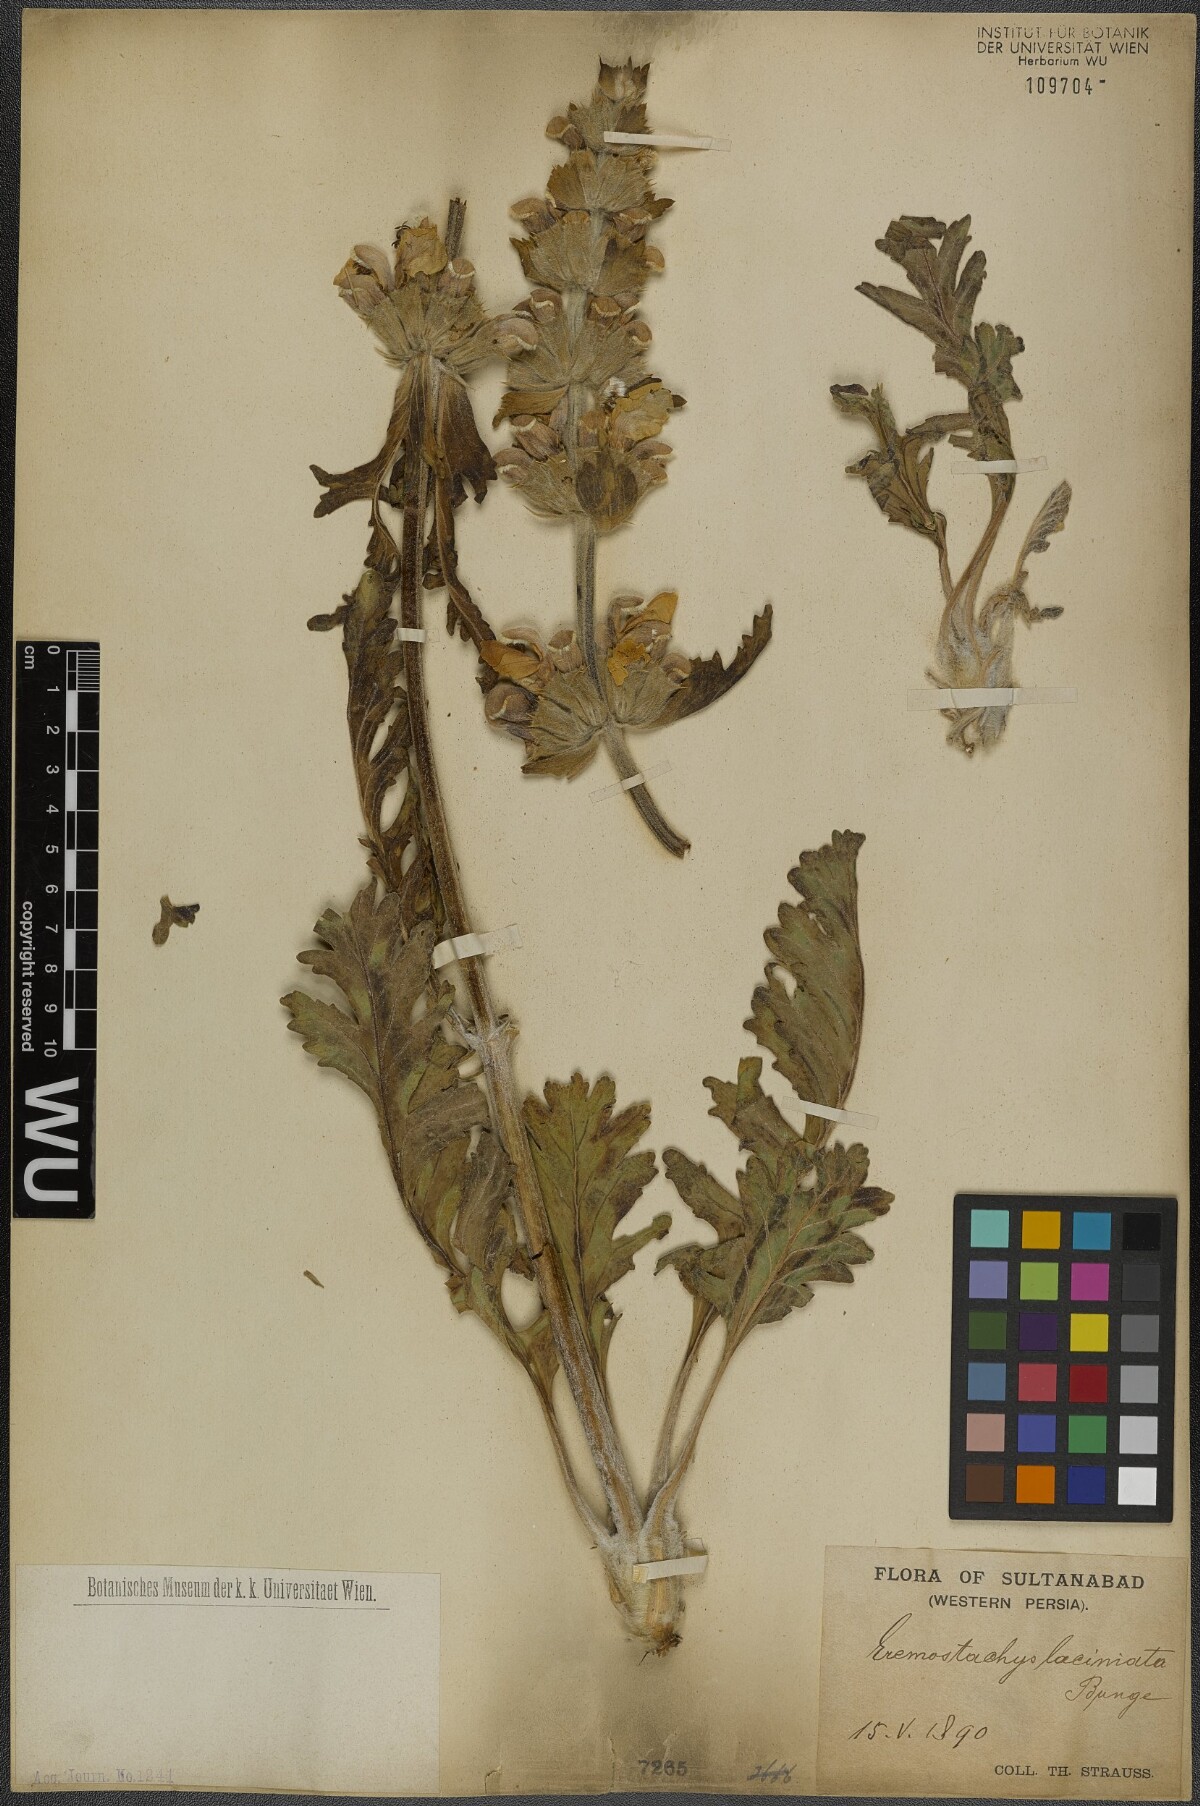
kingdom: Plantae
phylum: Tracheophyta
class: Magnoliopsida
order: Lamiales
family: Lamiaceae
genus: Phlomoides
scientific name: Phlomoides laciniata
